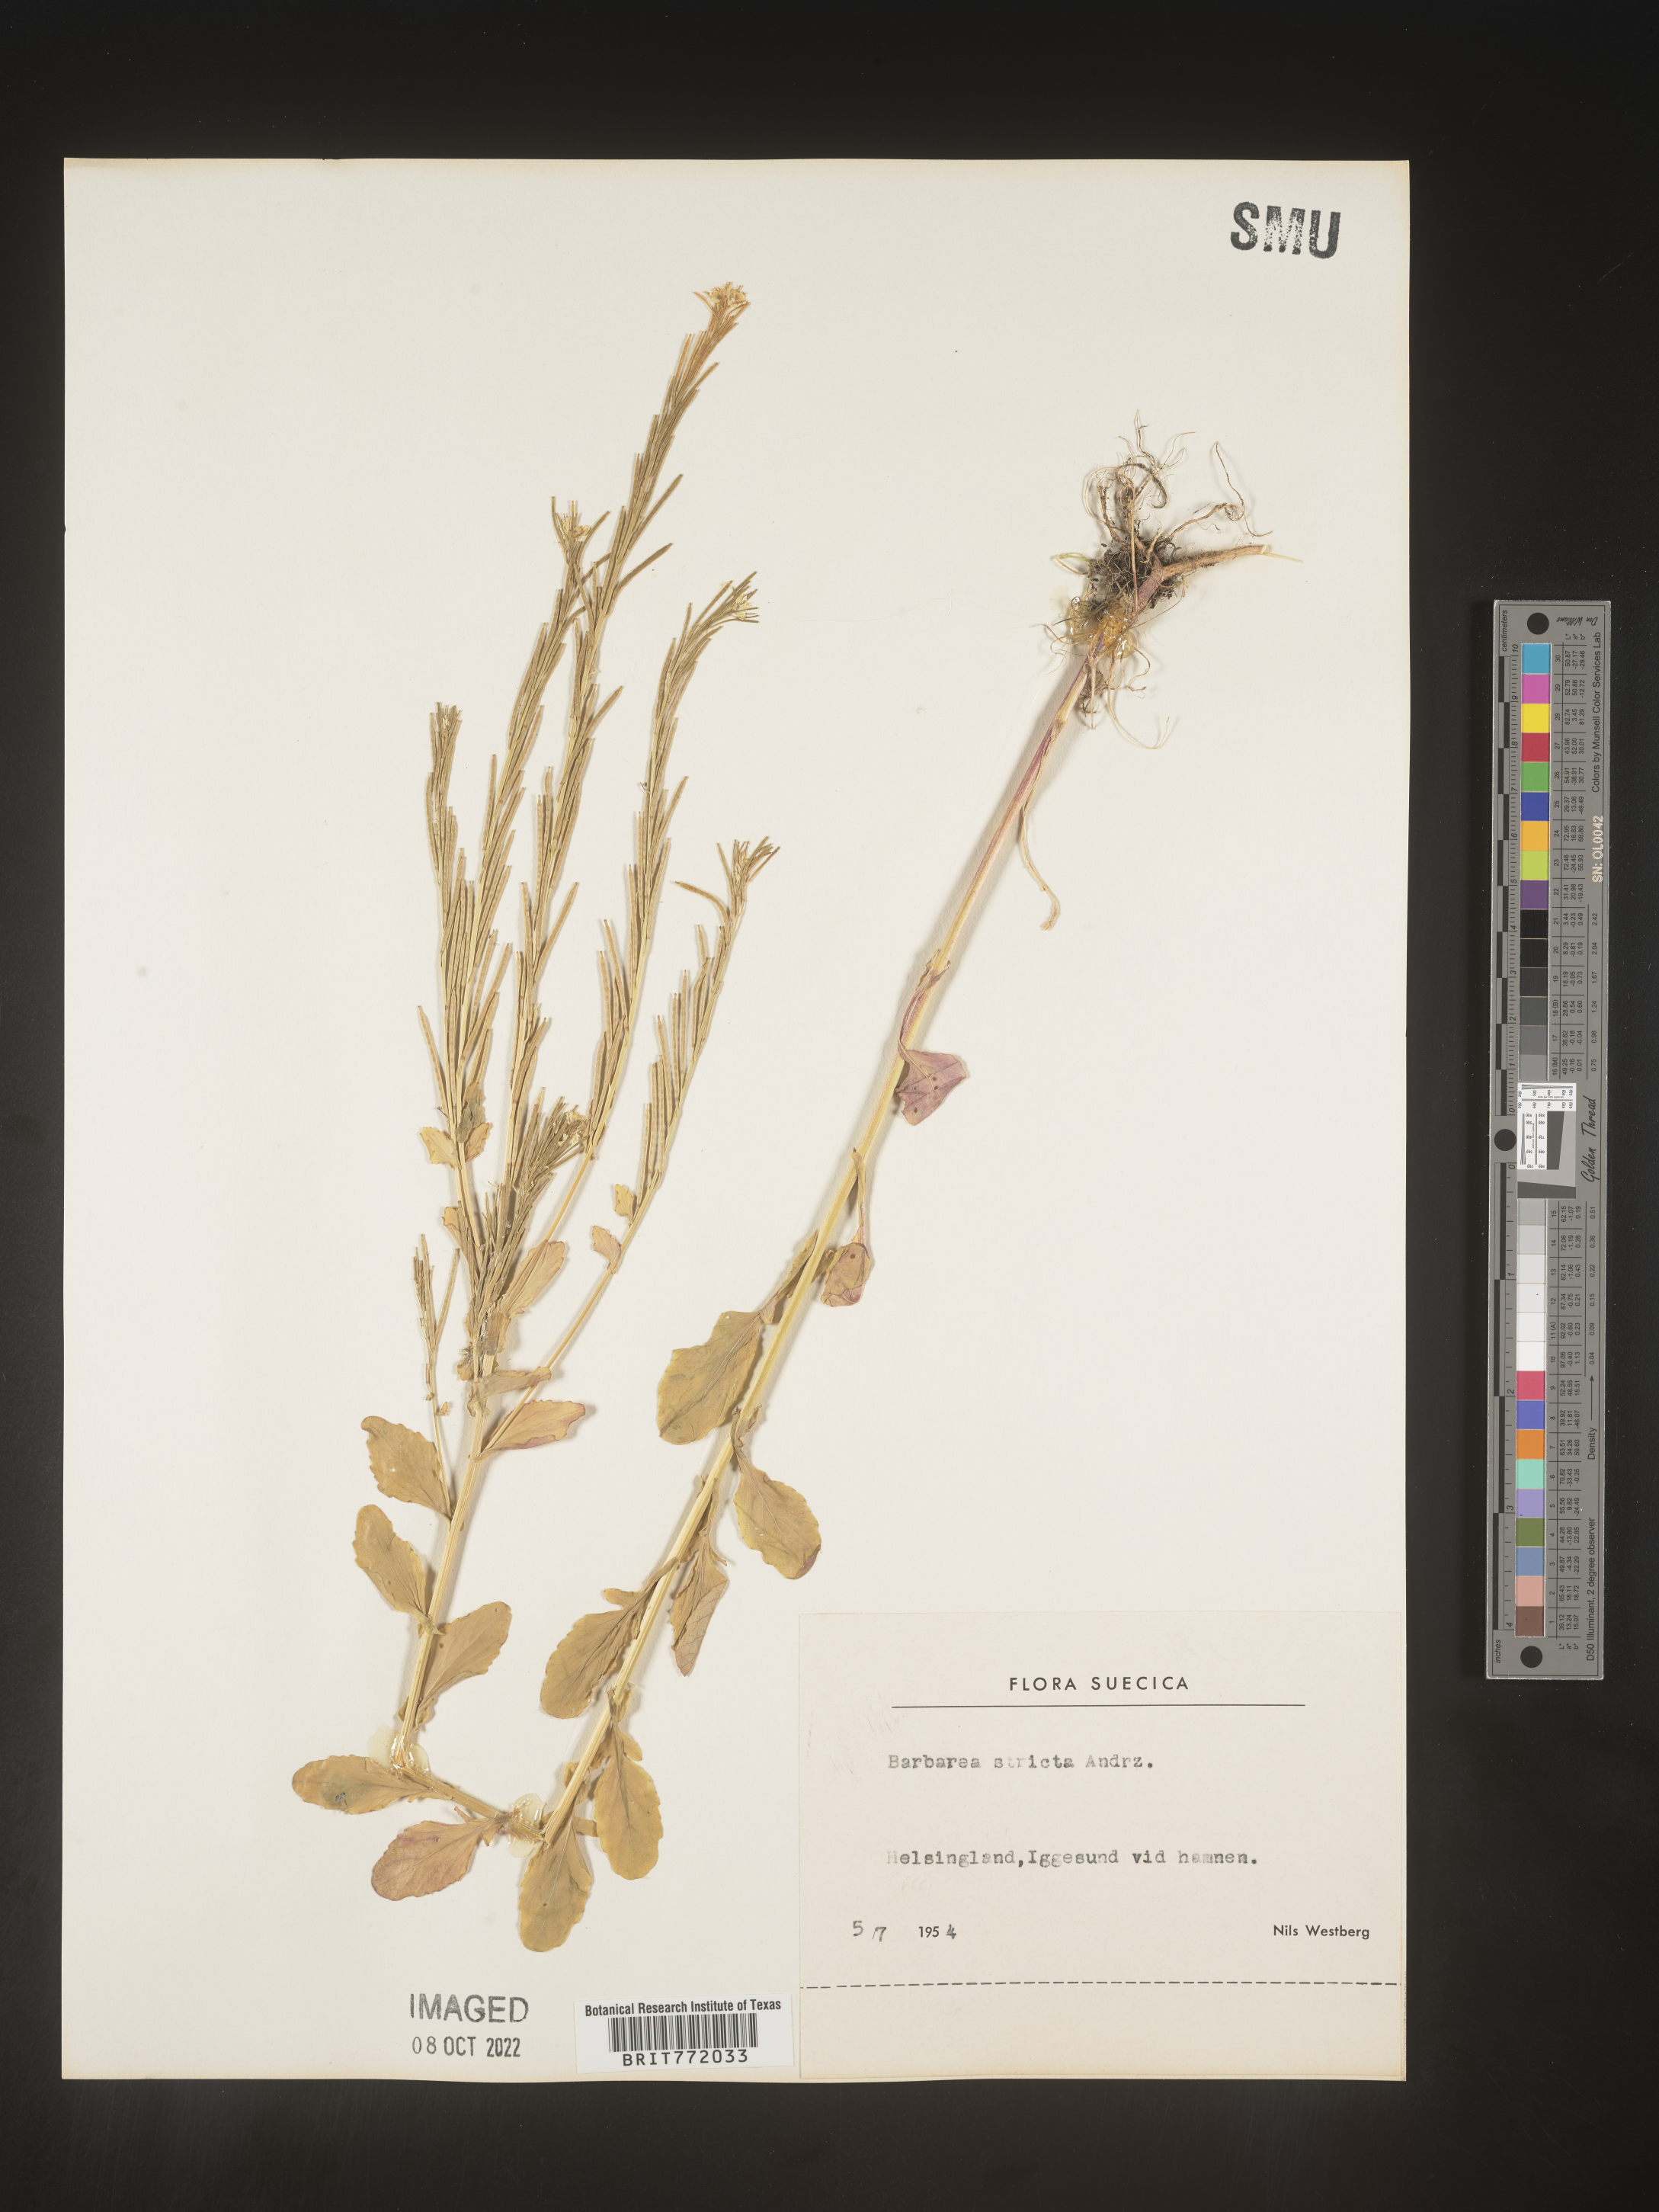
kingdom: Plantae
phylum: Tracheophyta
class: Magnoliopsida
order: Brassicales
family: Brassicaceae
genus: Barbarea
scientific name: Barbarea
